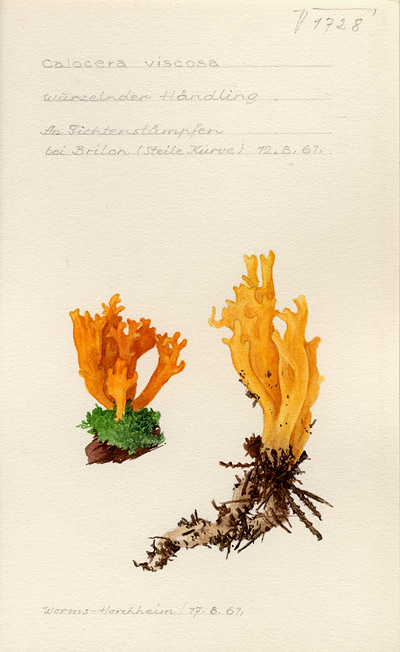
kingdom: Fungi
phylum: Basidiomycota
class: Dacrymycetes
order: Dacrymycetales
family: Dacrymycetaceae
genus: Calocera
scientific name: Calocera viscosa
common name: Yellow stagshorn
